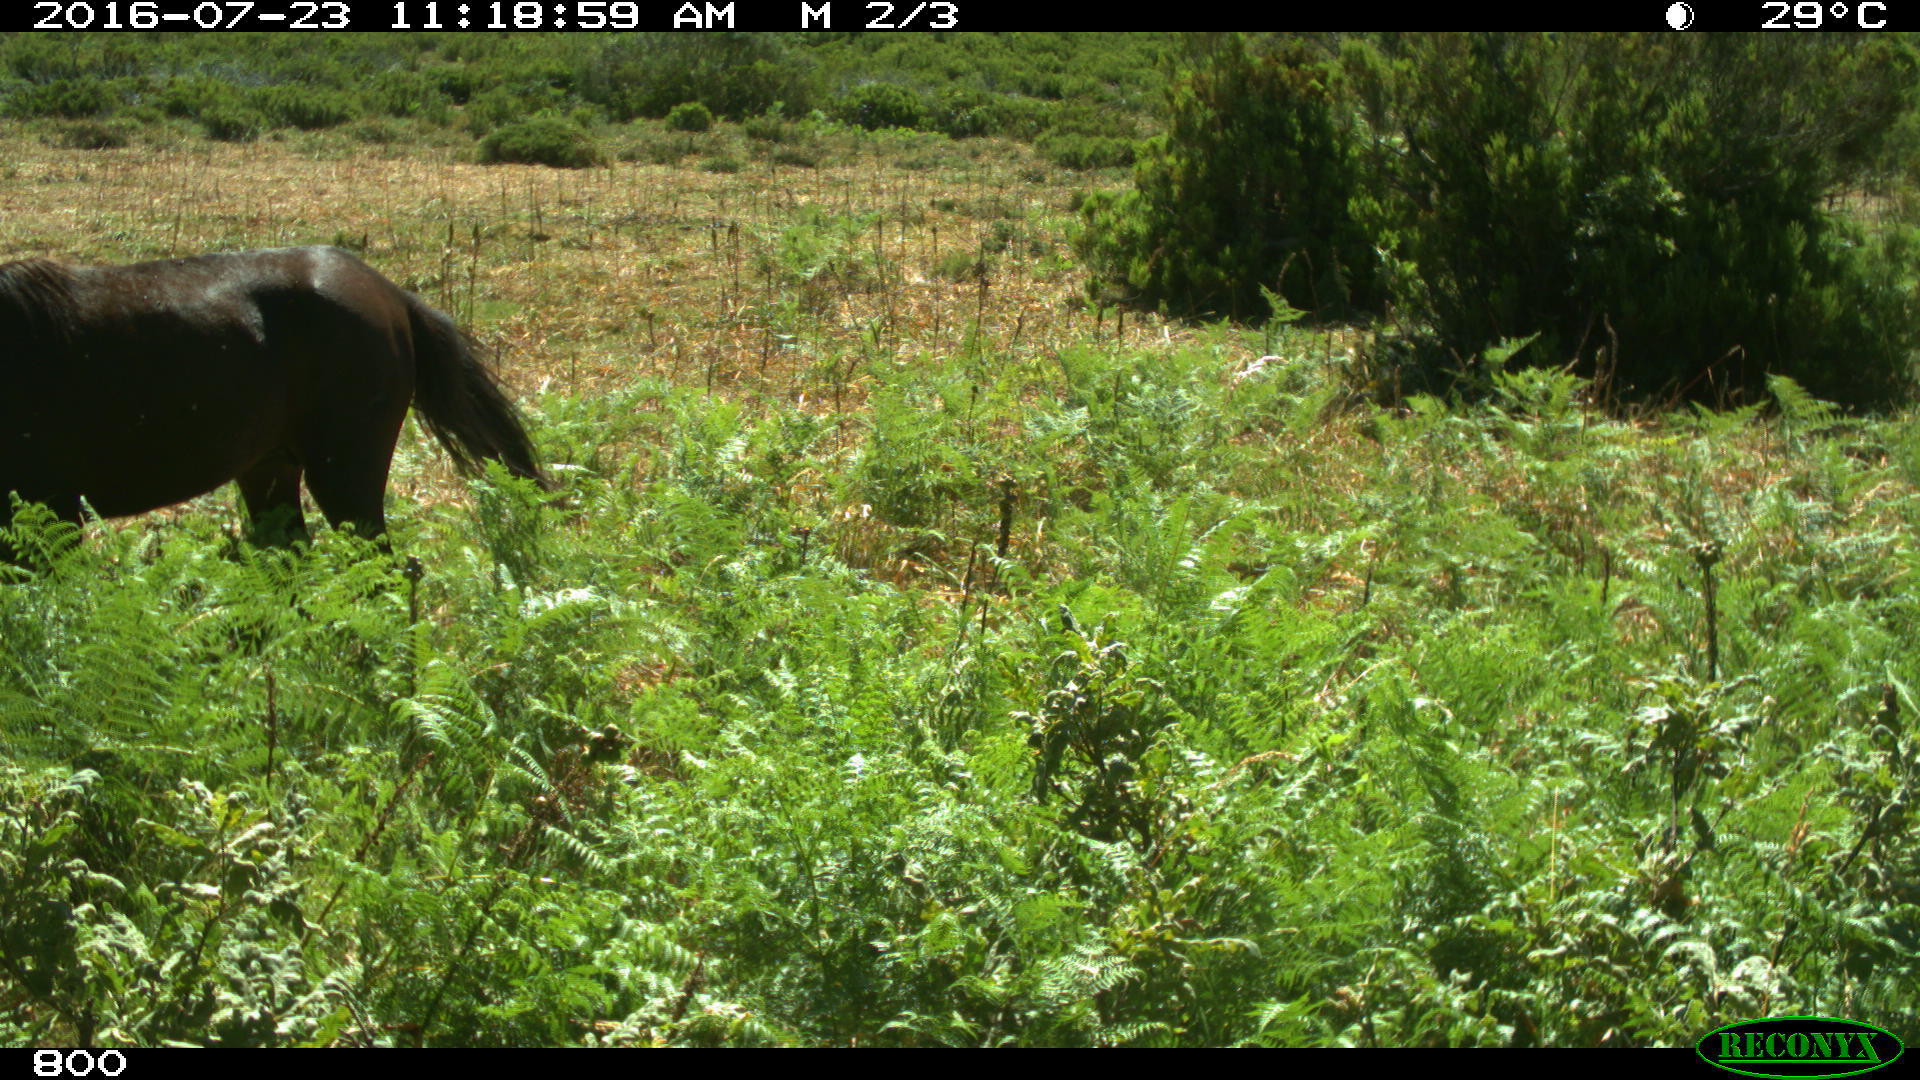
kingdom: Animalia
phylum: Chordata
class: Mammalia
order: Perissodactyla
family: Equidae
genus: Equus
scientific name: Equus caballus
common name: Horse
